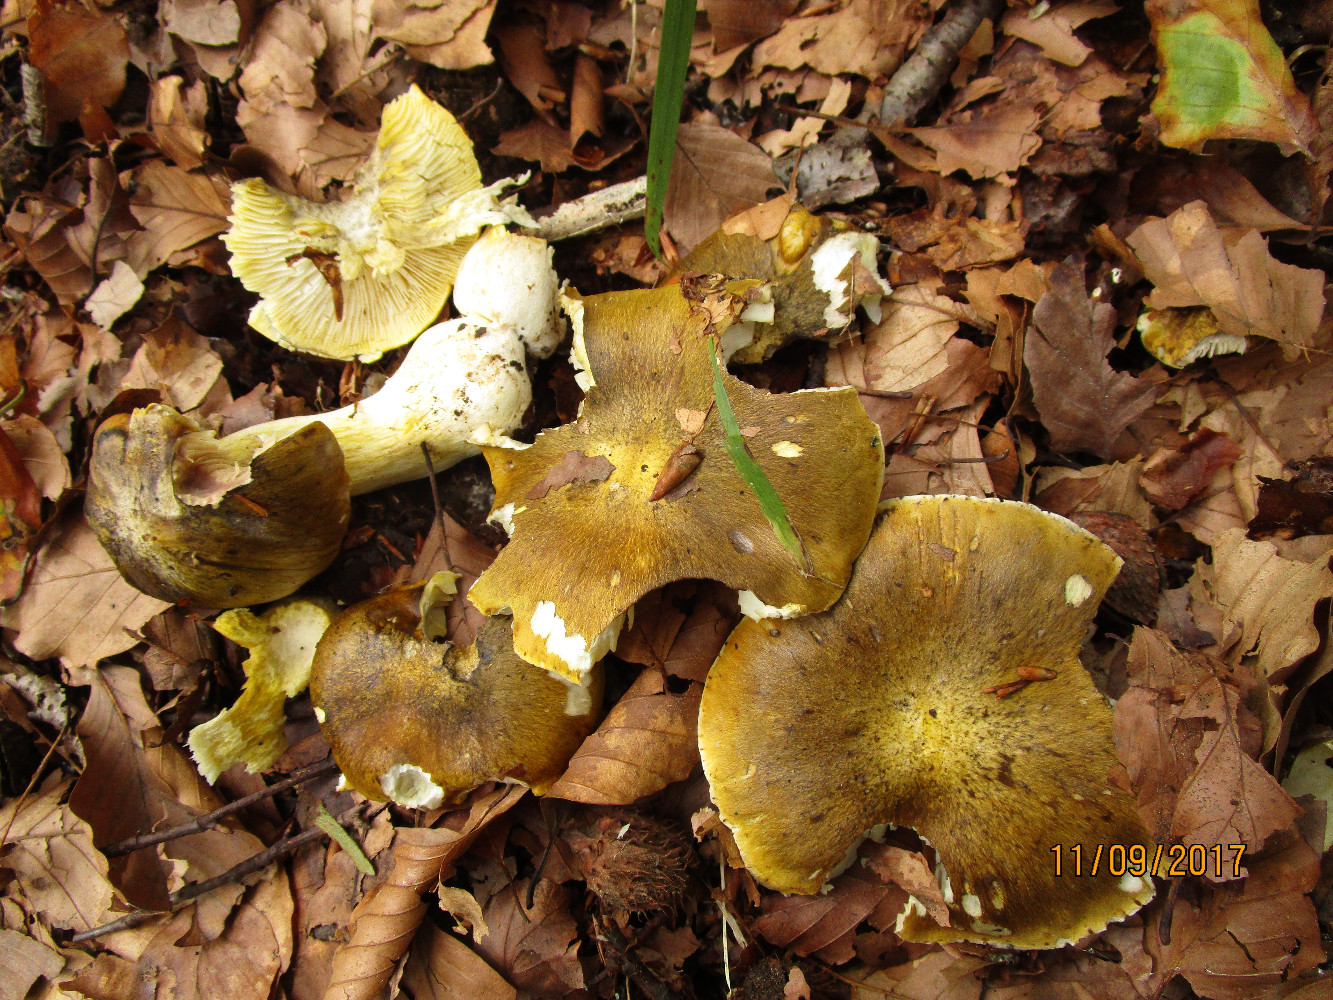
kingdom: Fungi
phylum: Basidiomycota
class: Agaricomycetes
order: Agaricales
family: Tricholomataceae
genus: Tricholoma
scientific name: Tricholoma sejunctum
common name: grøngul ridderhat
